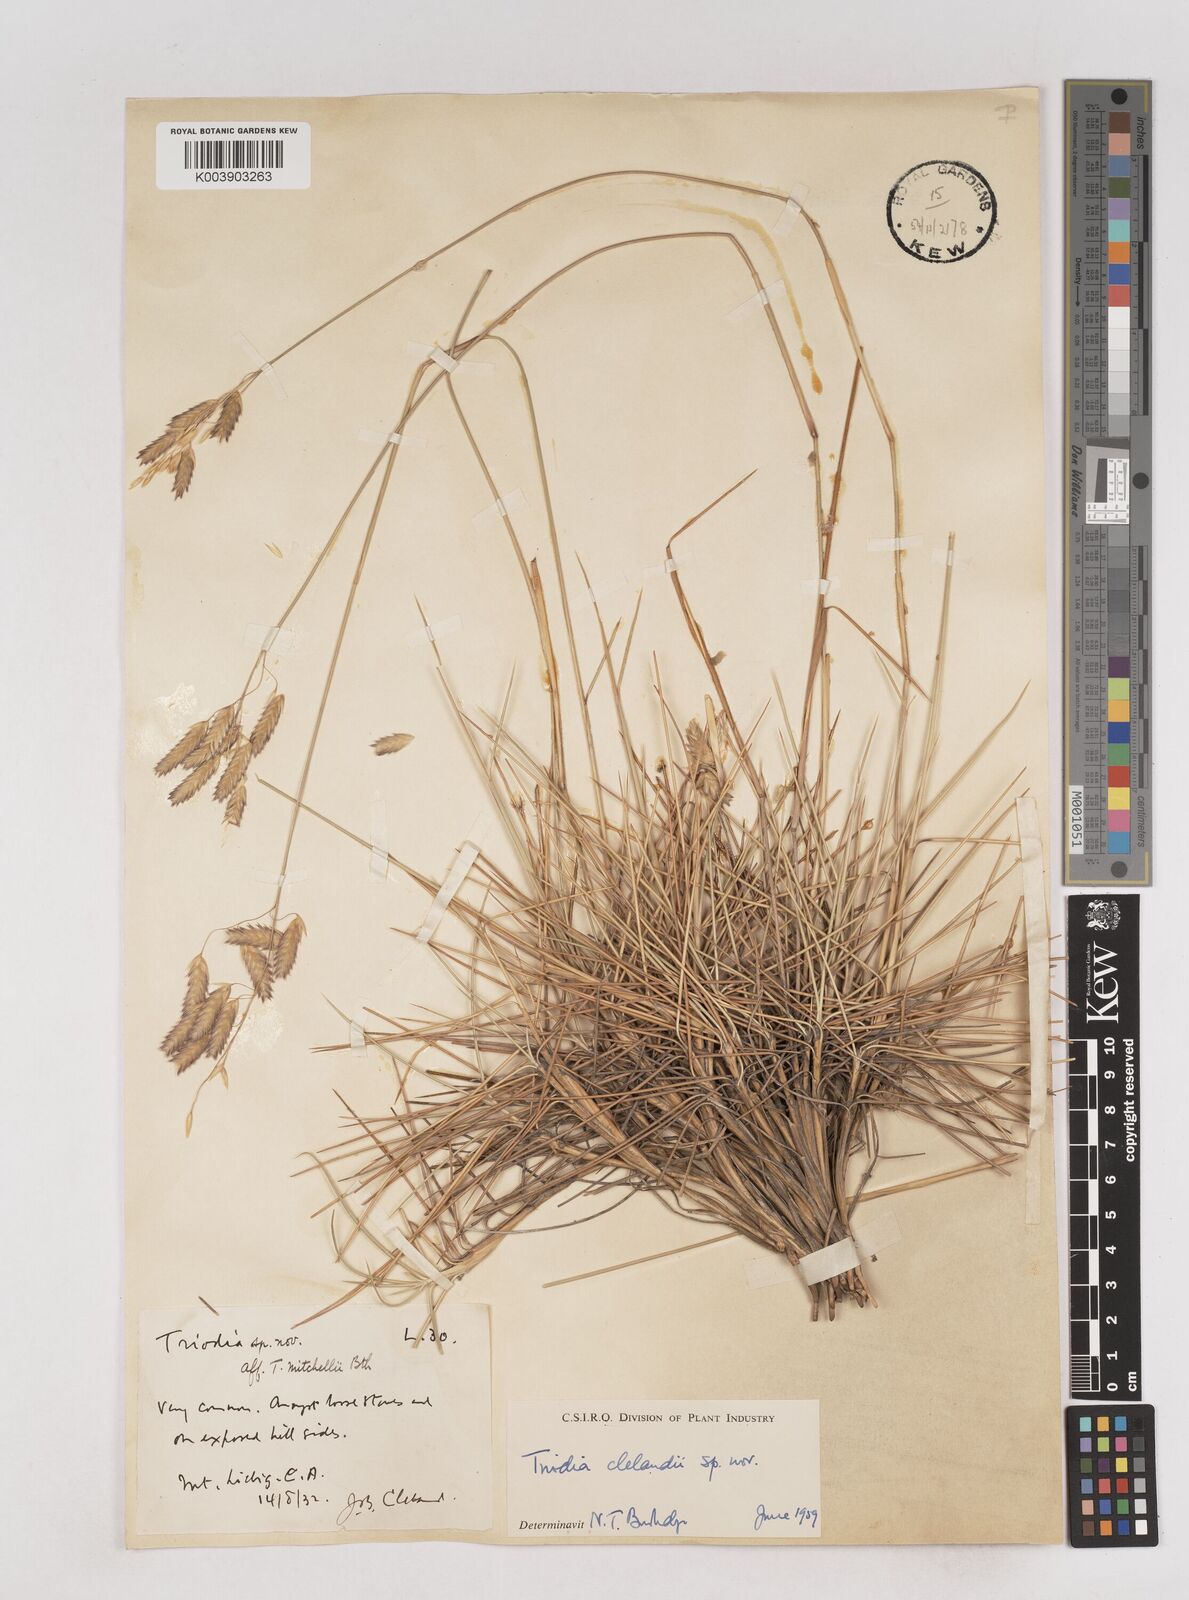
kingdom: Plantae
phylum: Tracheophyta
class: Liliopsida
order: Poales
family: Poaceae
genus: Triodia
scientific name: Triodia brizoides
